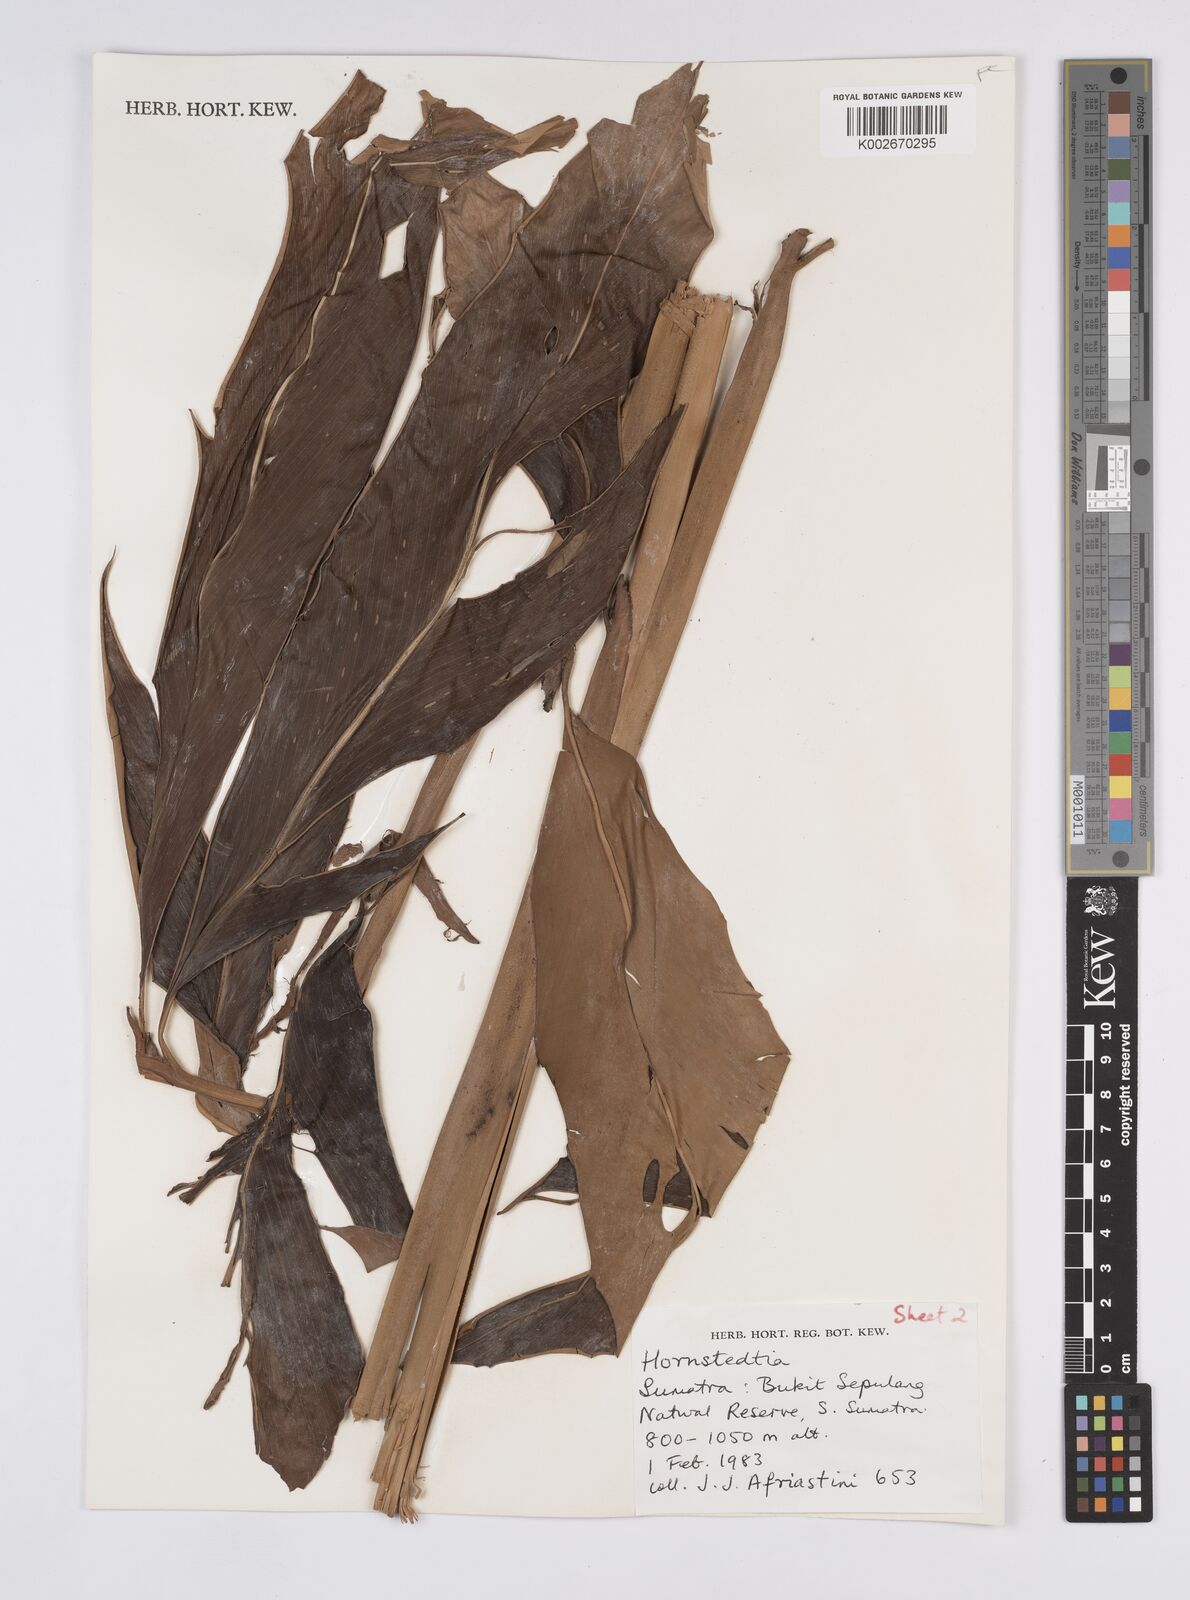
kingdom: Plantae
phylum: Tracheophyta
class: Liliopsida
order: Zingiberales
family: Zingiberaceae
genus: Hornstedtia
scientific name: Hornstedtia rubra
